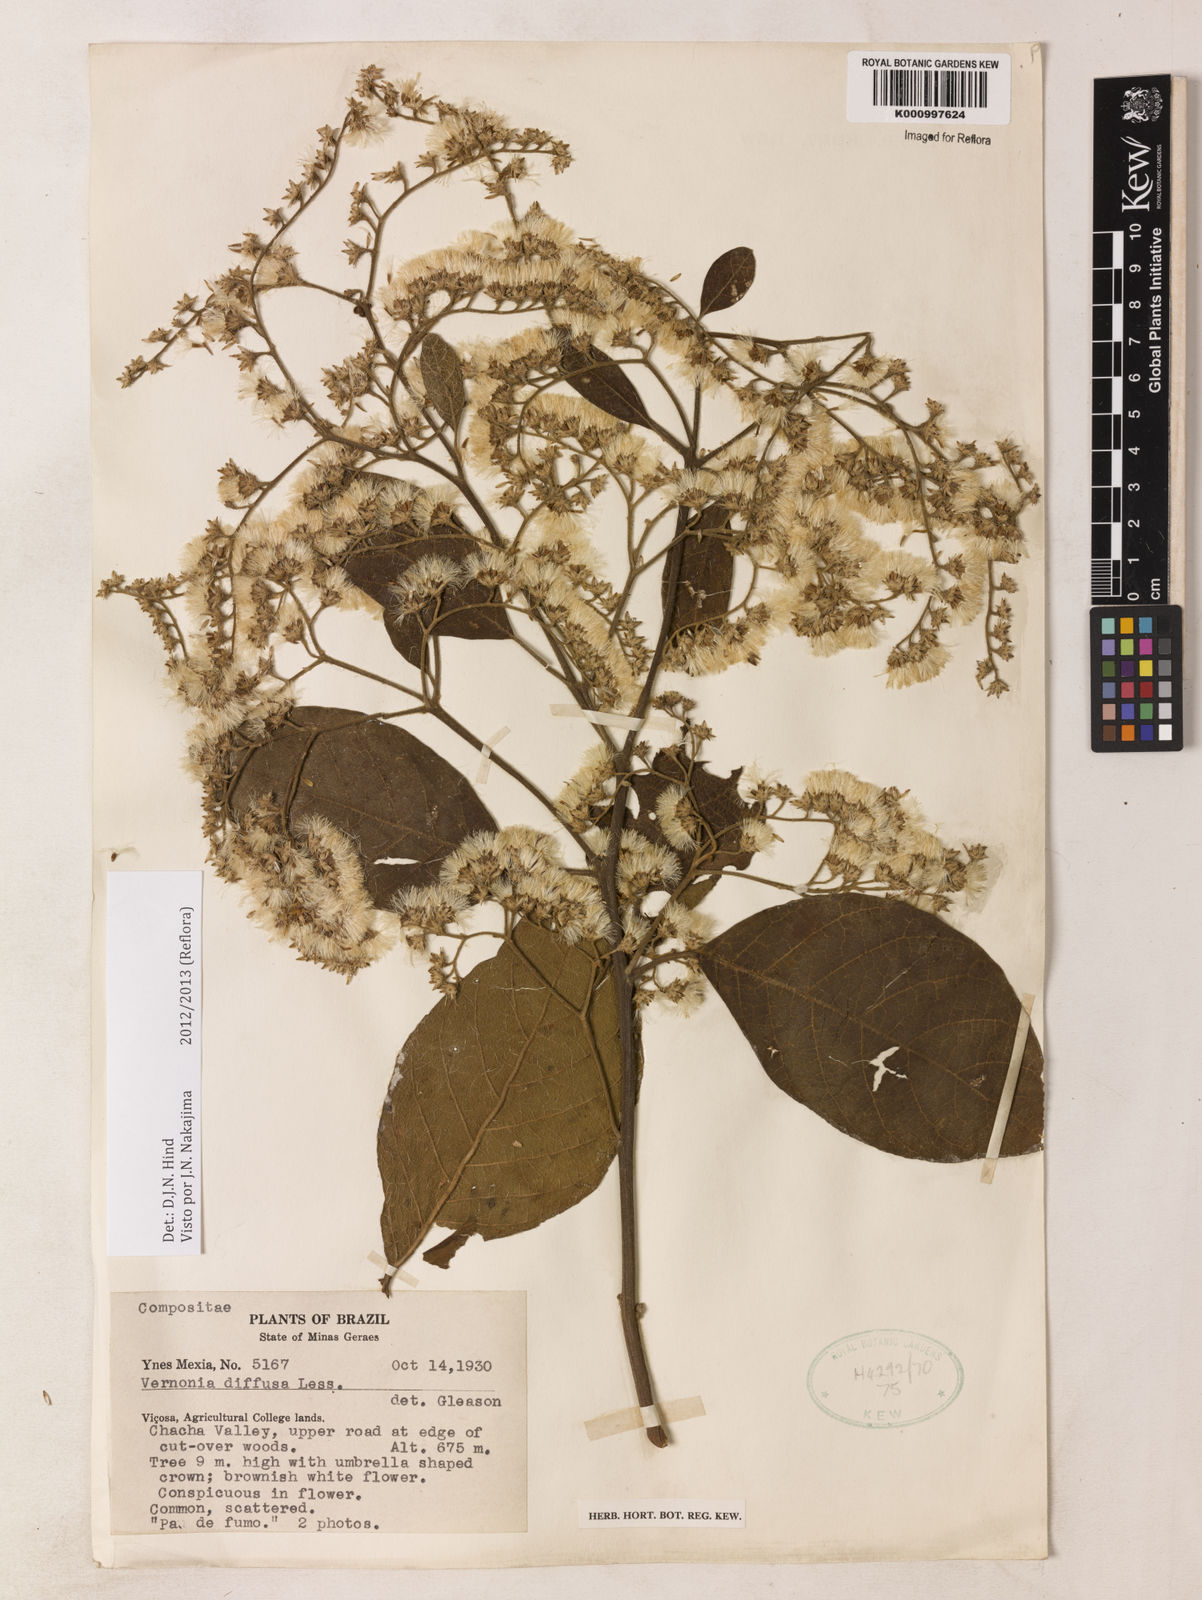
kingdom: Plantae
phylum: Tracheophyta
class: Magnoliopsida
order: Asterales
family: Asteraceae
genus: Vernonanthura
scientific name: Vernonanthura divaricata
